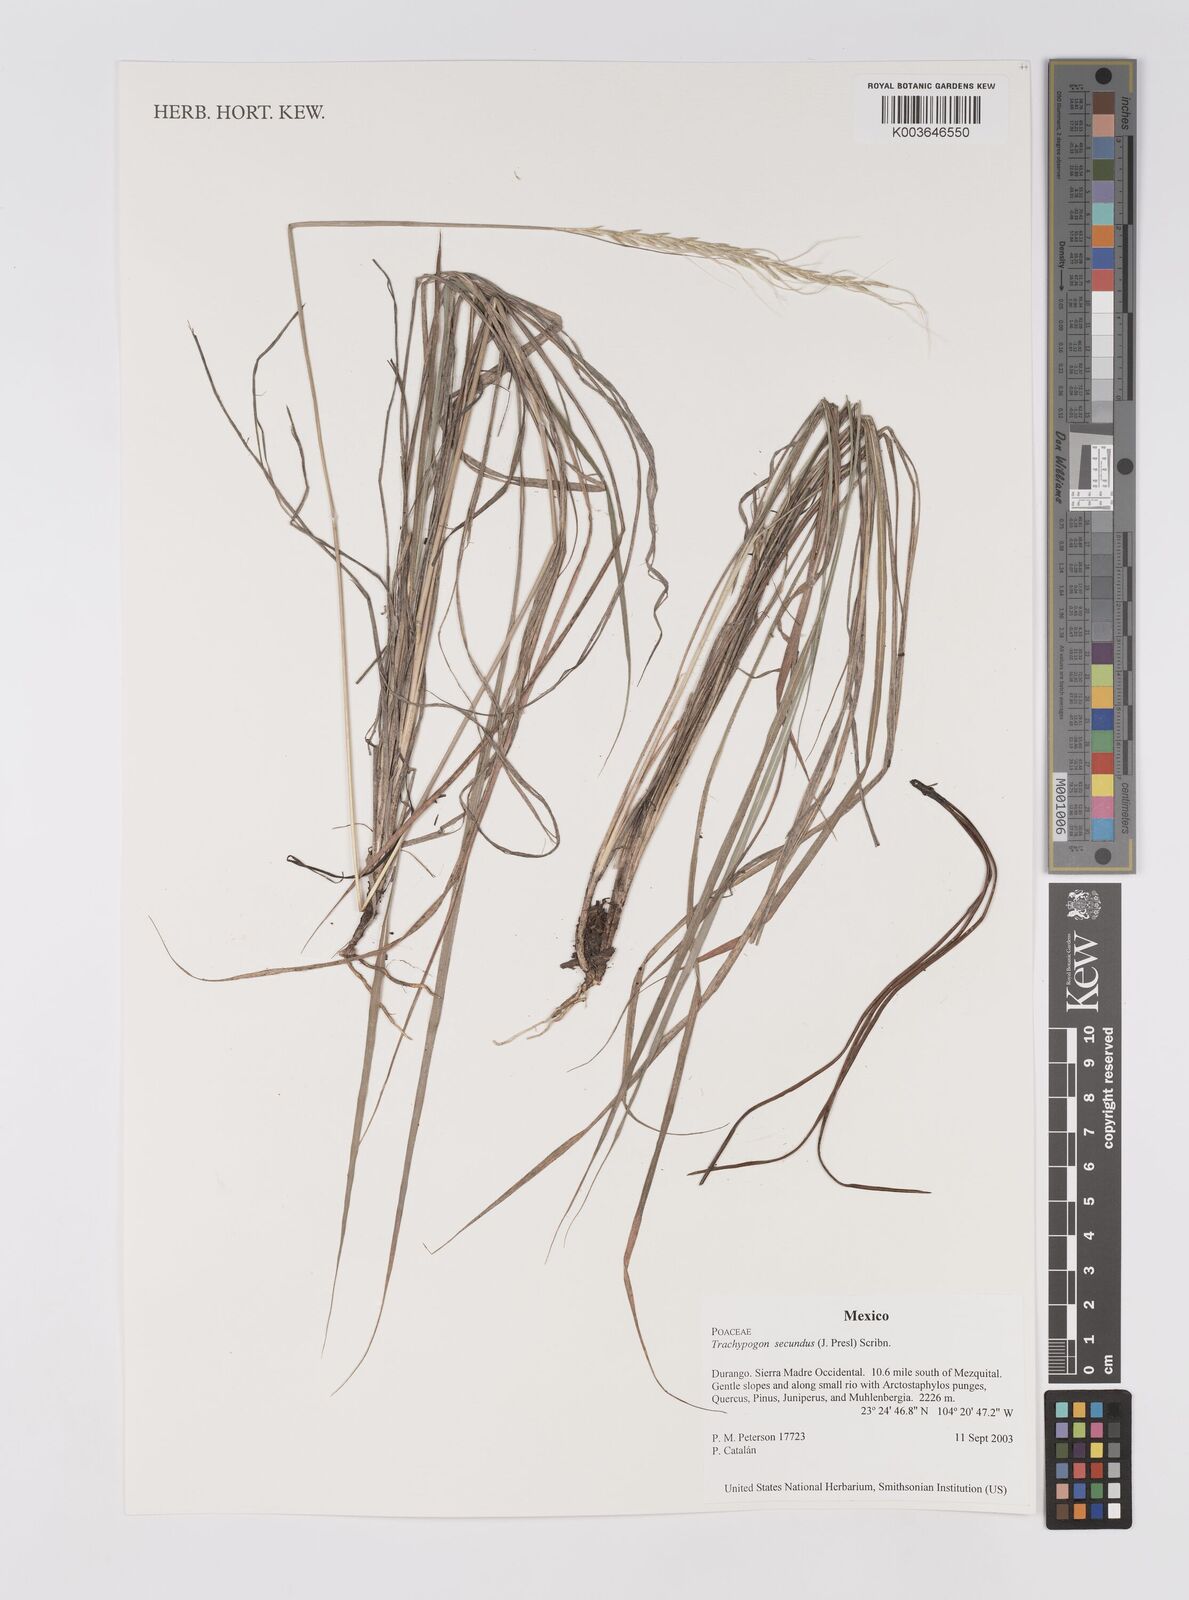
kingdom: Plantae
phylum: Tracheophyta
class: Liliopsida
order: Poales
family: Poaceae
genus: Trachypogon
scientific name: Trachypogon spicatus
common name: Crinkle-awn
